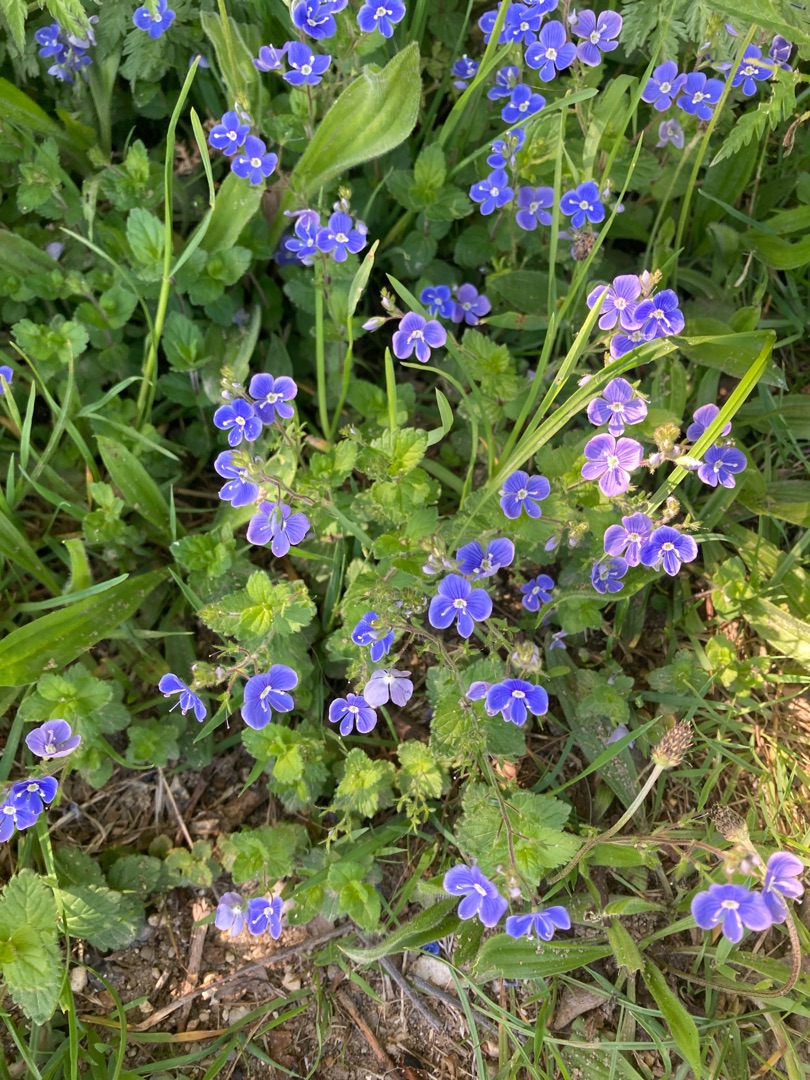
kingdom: Plantae
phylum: Tracheophyta
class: Magnoliopsida
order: Lamiales
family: Plantaginaceae
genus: Veronica
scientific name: Veronica chamaedrys
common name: Tveskægget ærenpris
